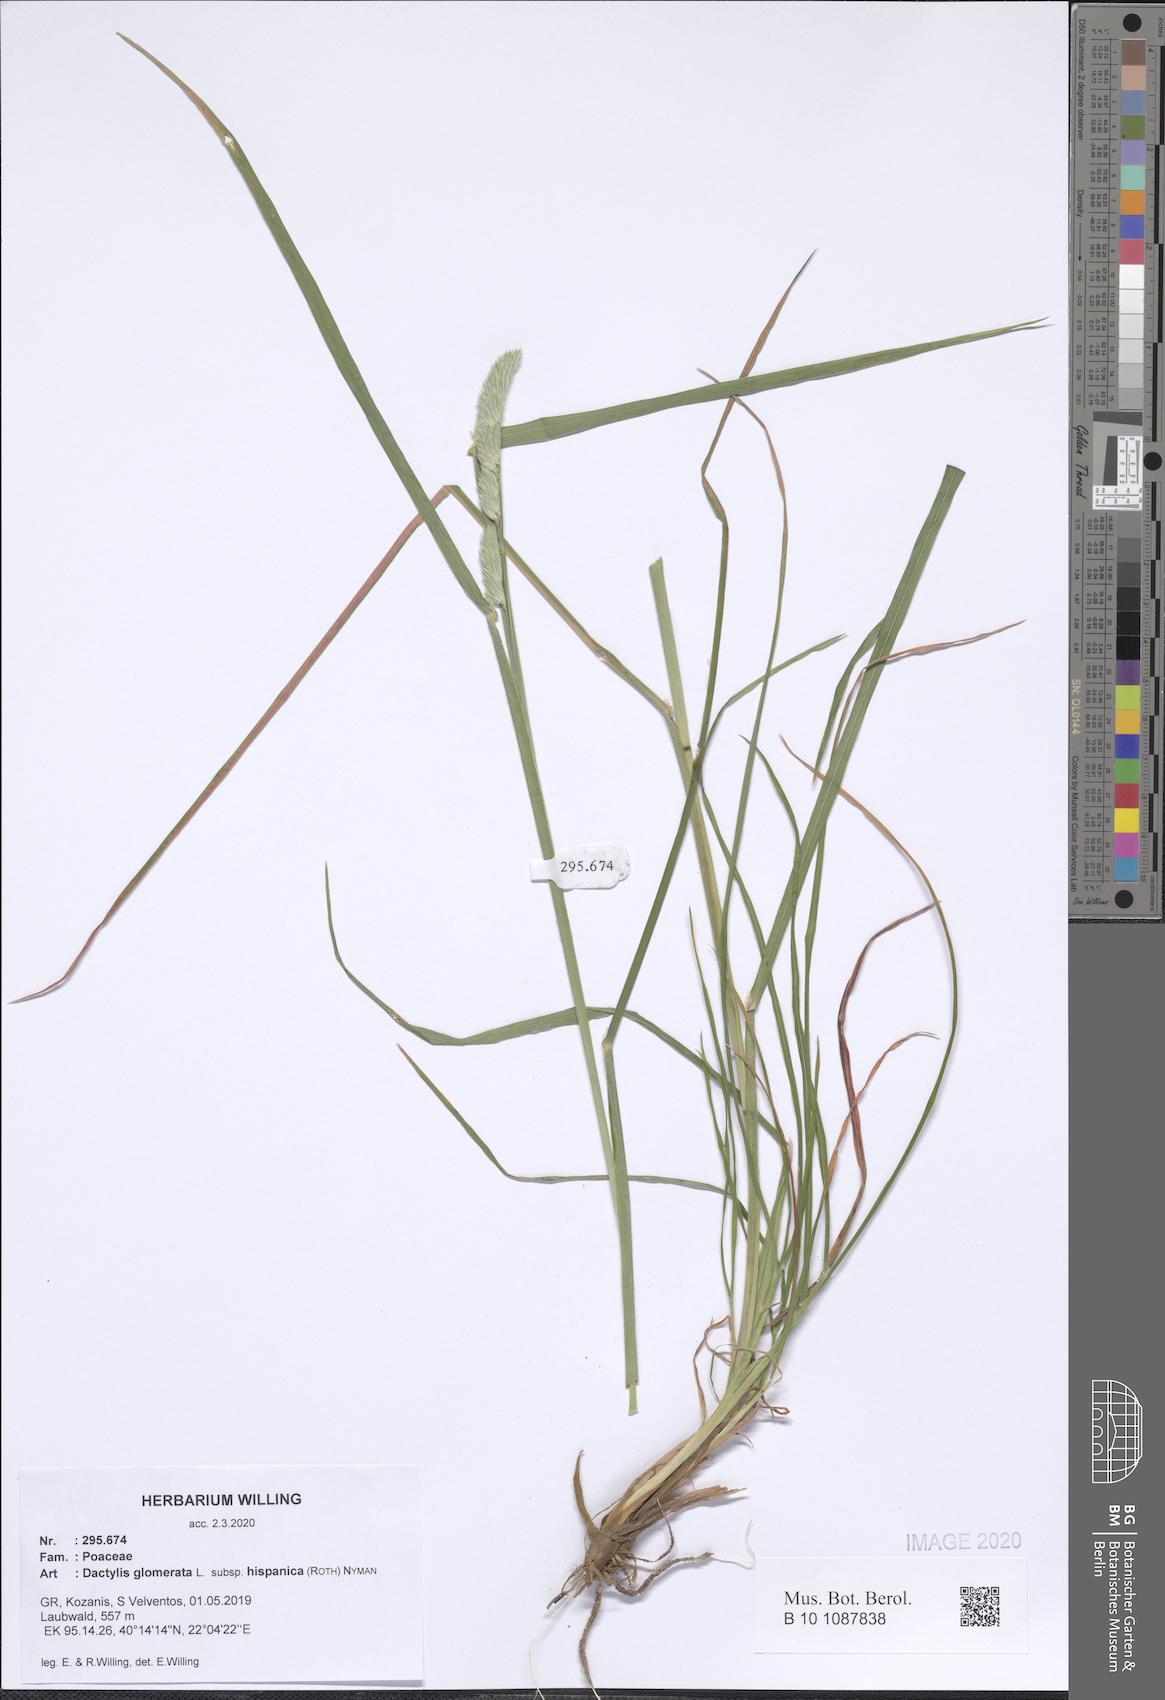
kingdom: Plantae
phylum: Tracheophyta
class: Liliopsida
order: Poales
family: Poaceae
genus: Dactylis
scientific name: Dactylis glomerata
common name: Orchardgrass
